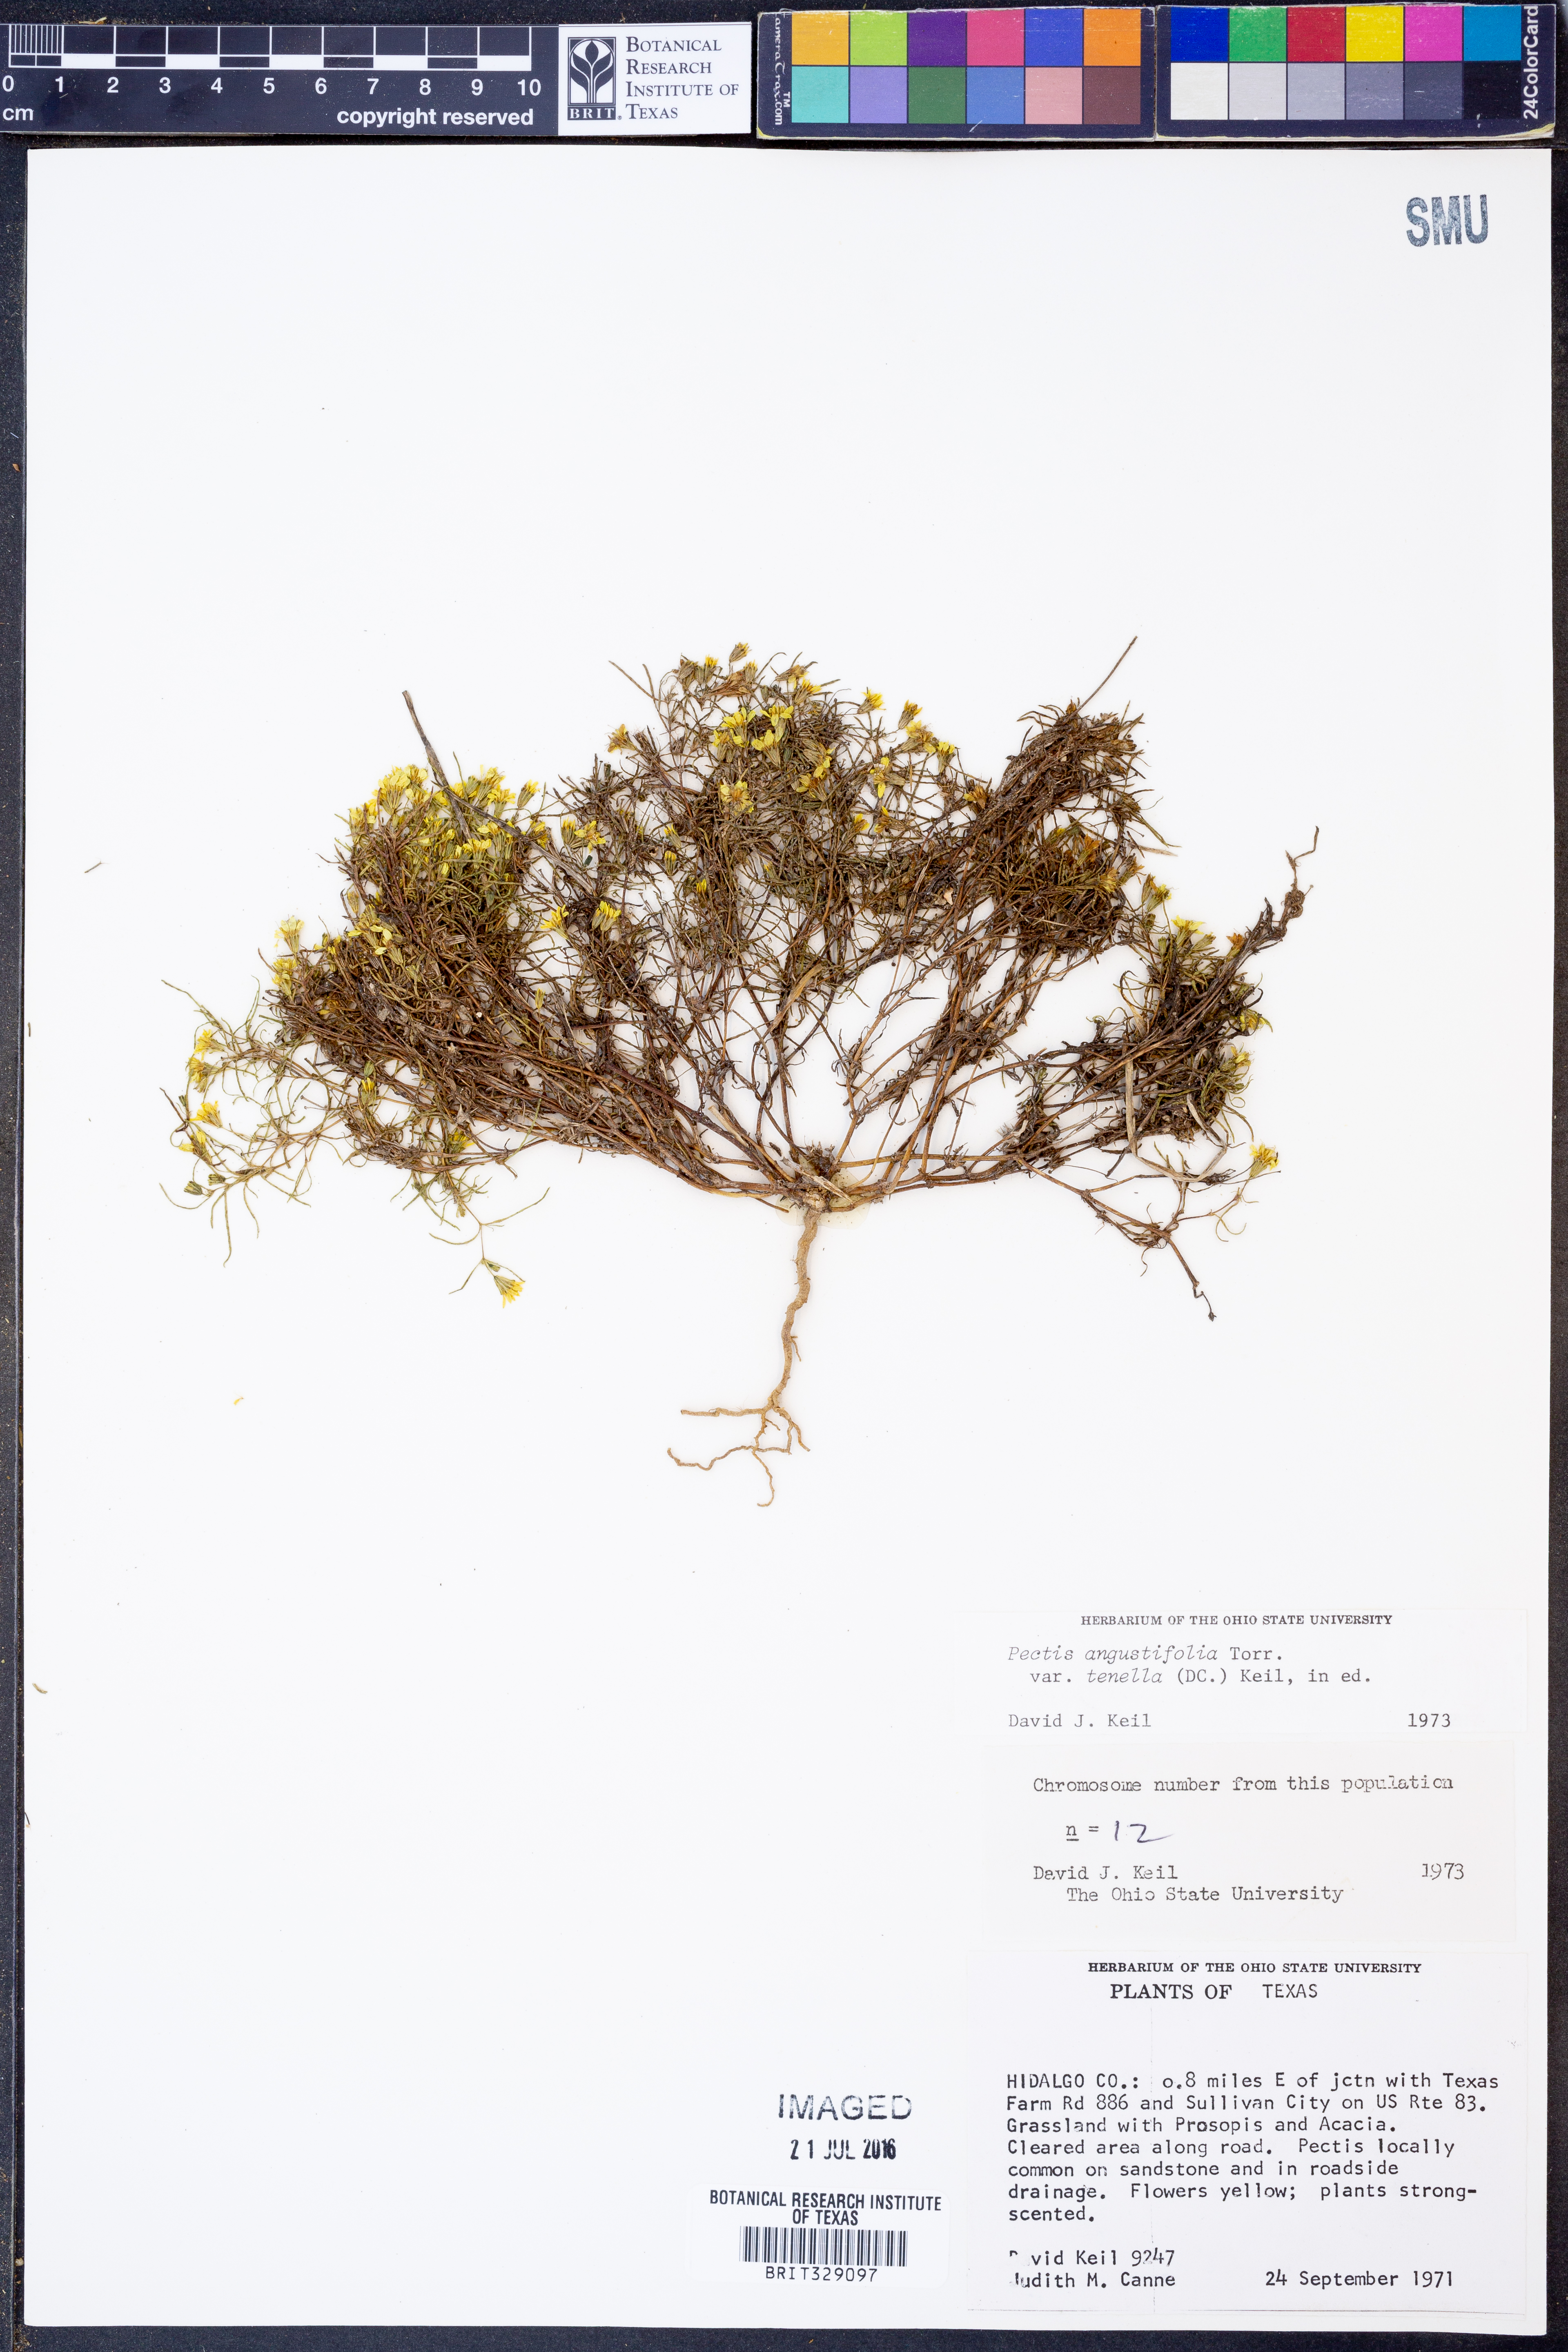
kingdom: Plantae
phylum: Tracheophyta
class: Magnoliopsida
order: Asterales
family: Asteraceae
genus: Pectis
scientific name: Pectis angustifolia
